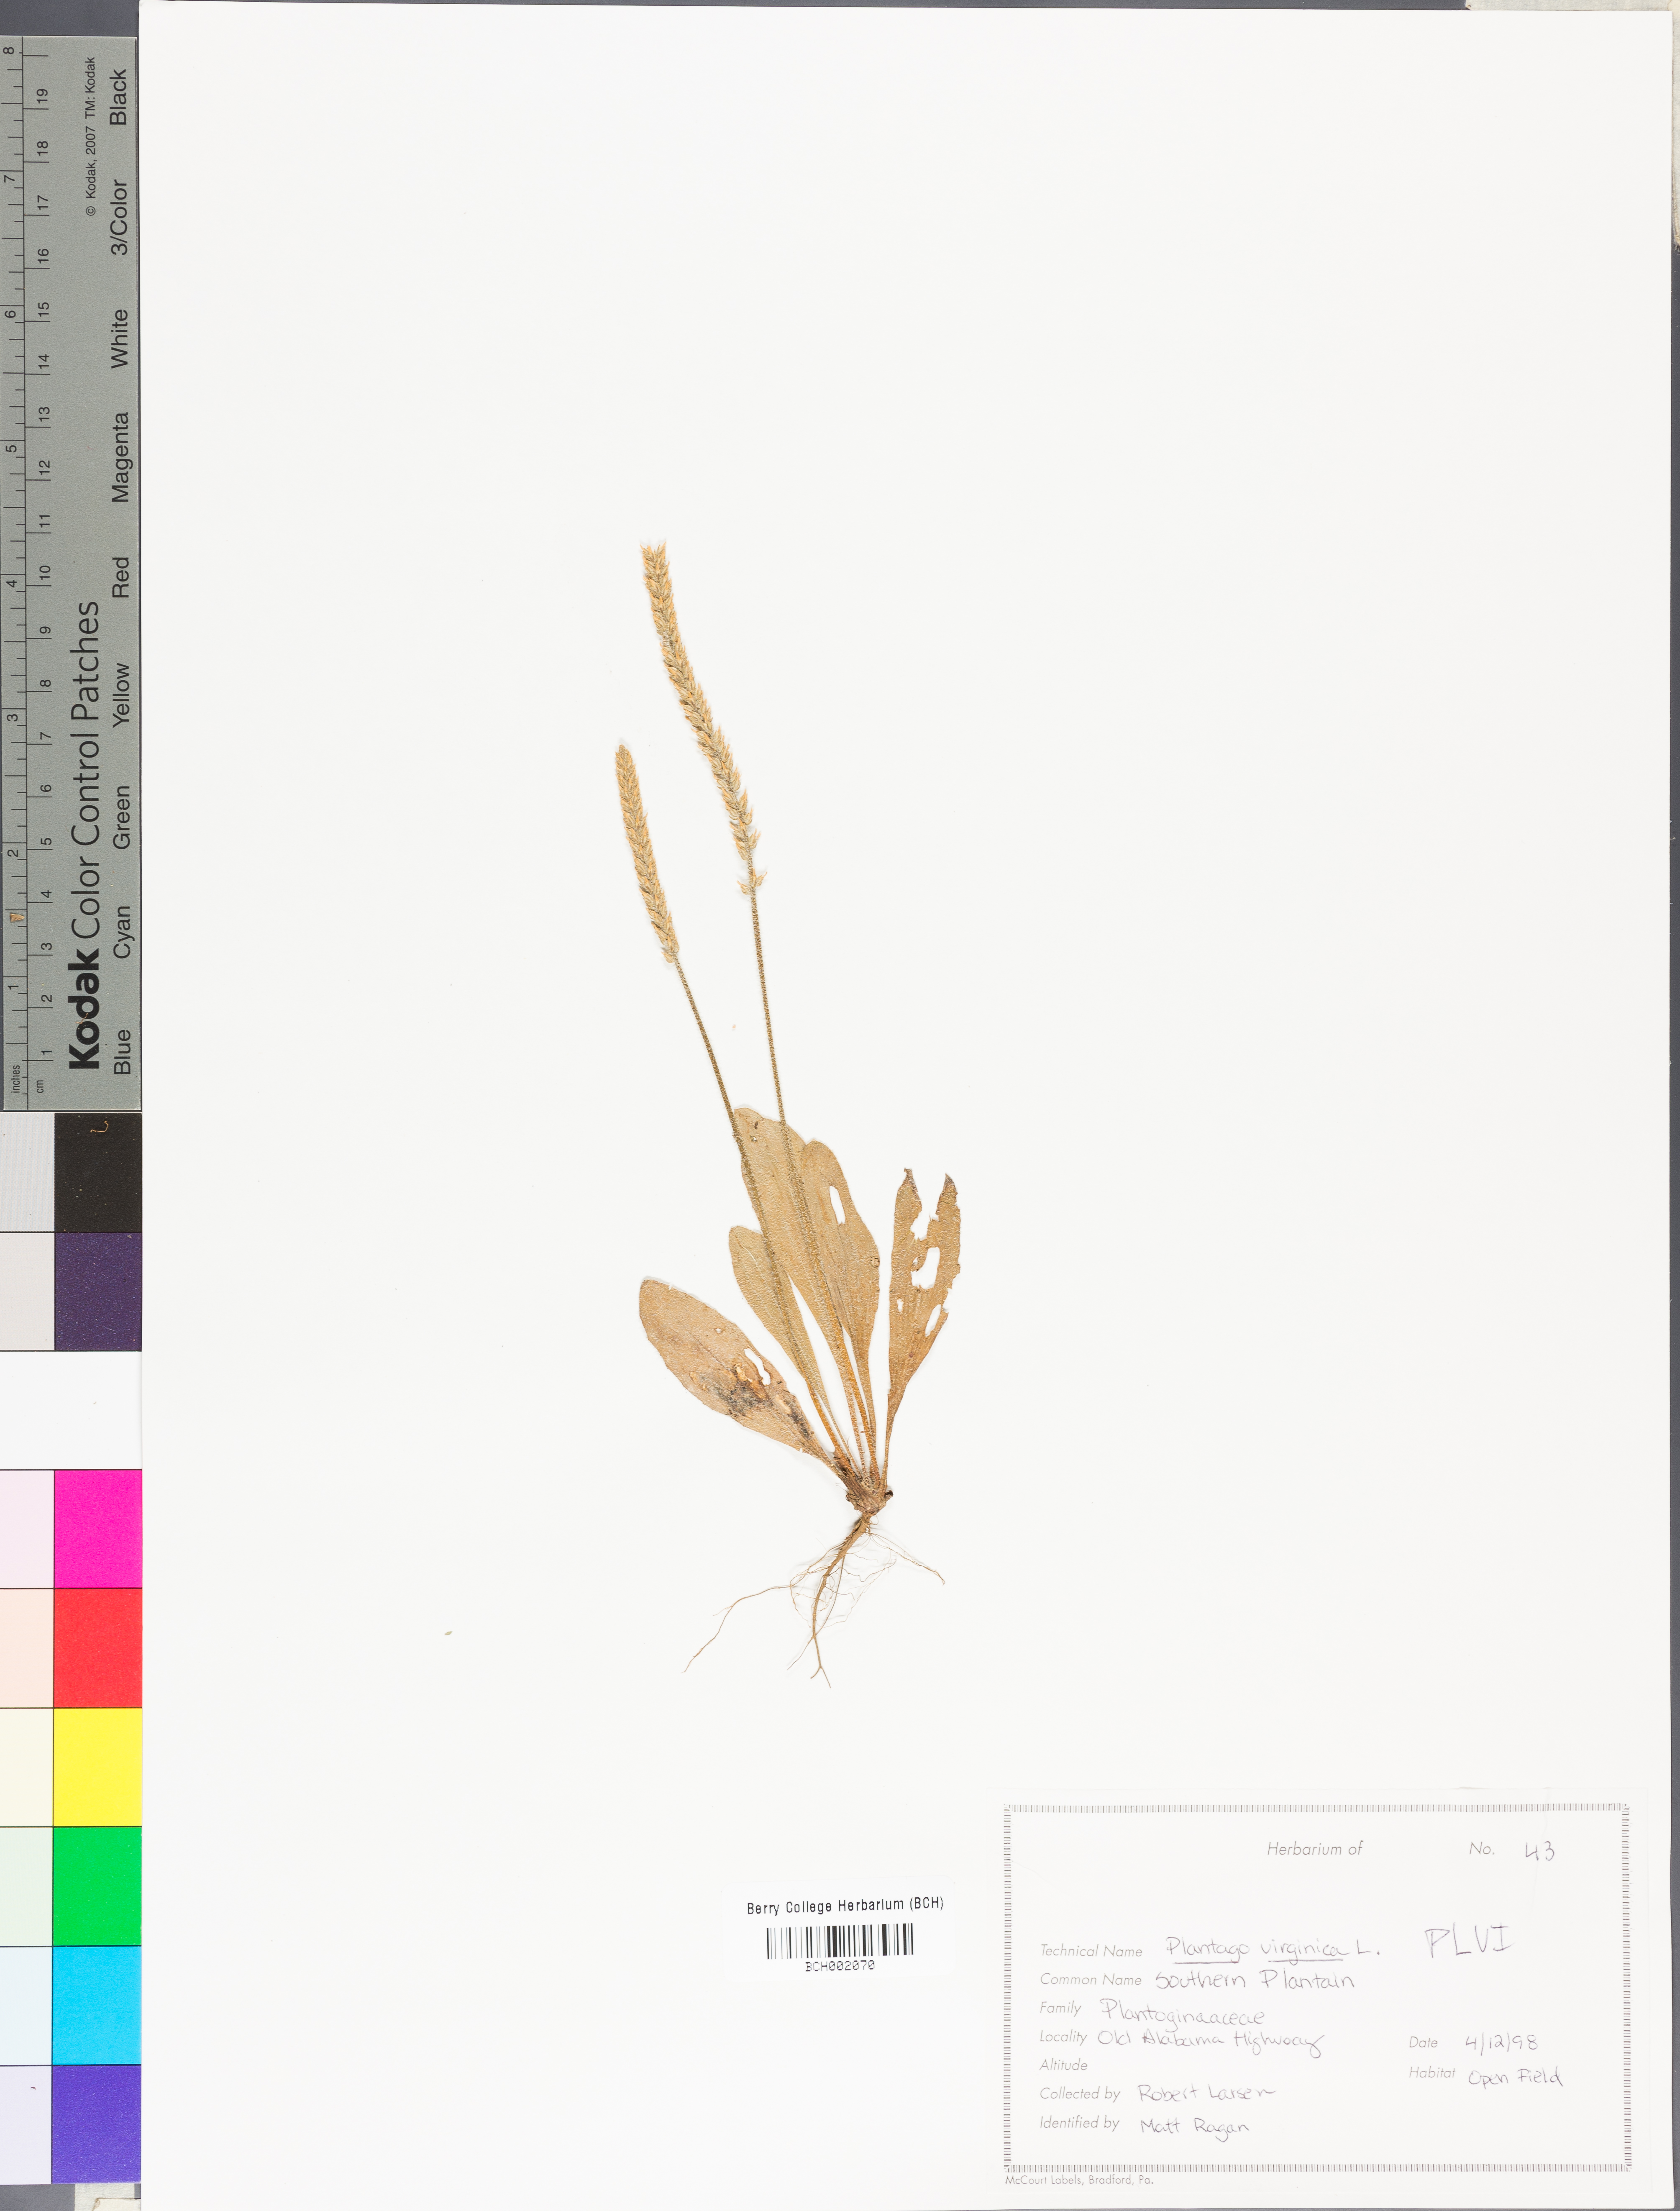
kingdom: Plantae
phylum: Tracheophyta
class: Magnoliopsida
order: Lamiales
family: Plantaginaceae
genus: Plantago
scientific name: Plantago virginica
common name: Hoary plantain
